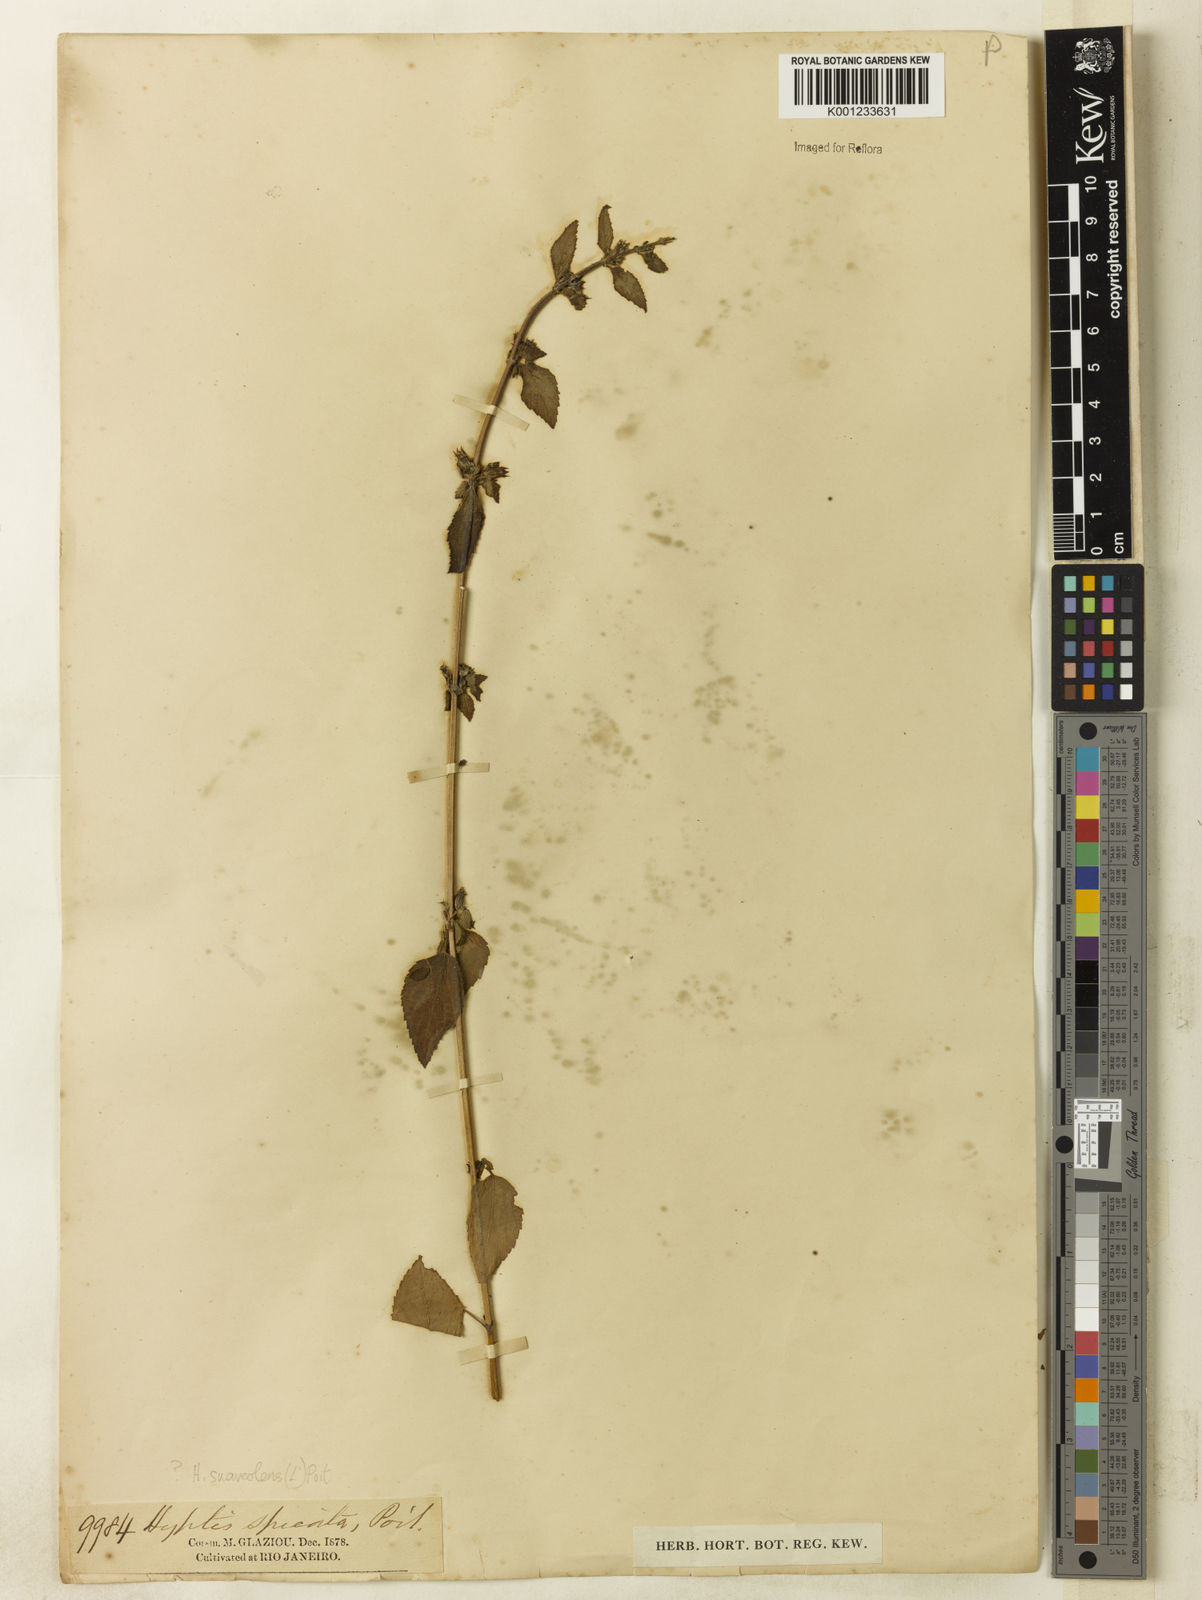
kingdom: Plantae
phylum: Tracheophyta
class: Magnoliopsida
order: Lamiales
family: Lamiaceae
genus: Mesosphaerum
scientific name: Mesosphaerum suaveolens
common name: Pignut
